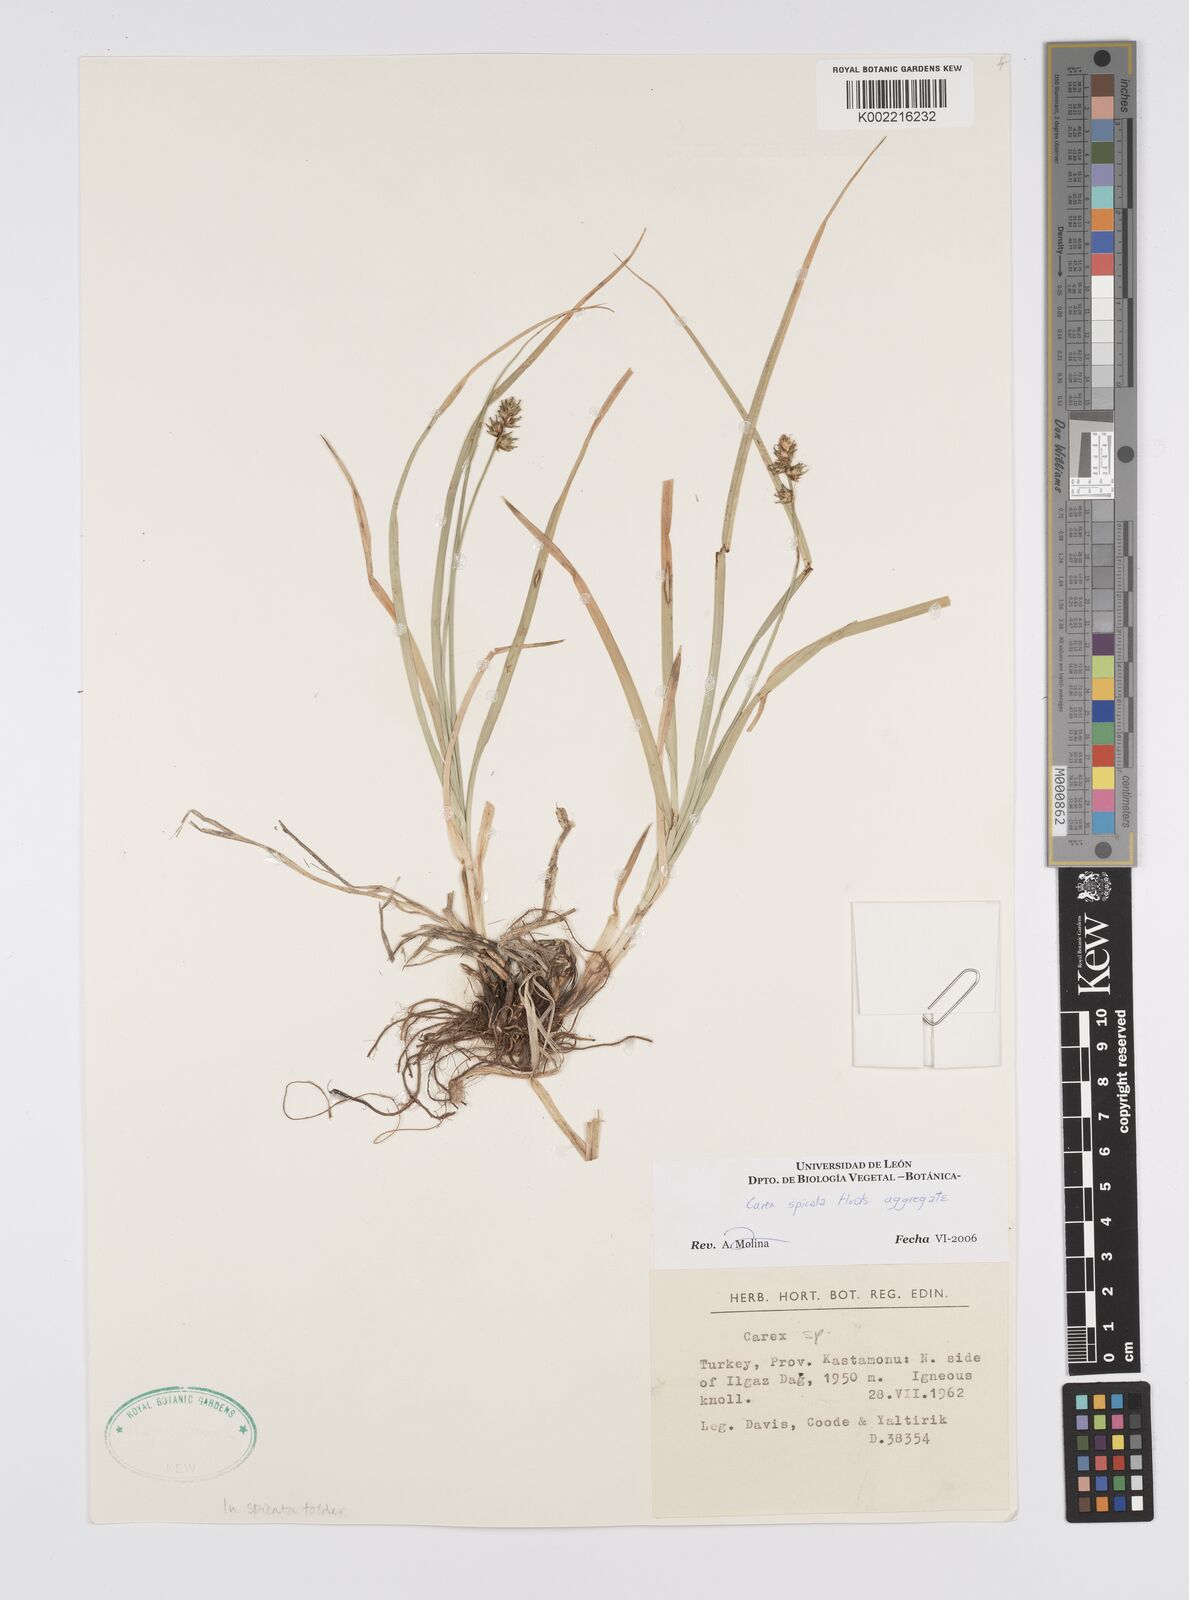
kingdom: Plantae
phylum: Tracheophyta
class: Liliopsida
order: Poales
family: Cyperaceae
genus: Carex
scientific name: Carex spicata
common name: Spiked sedge
